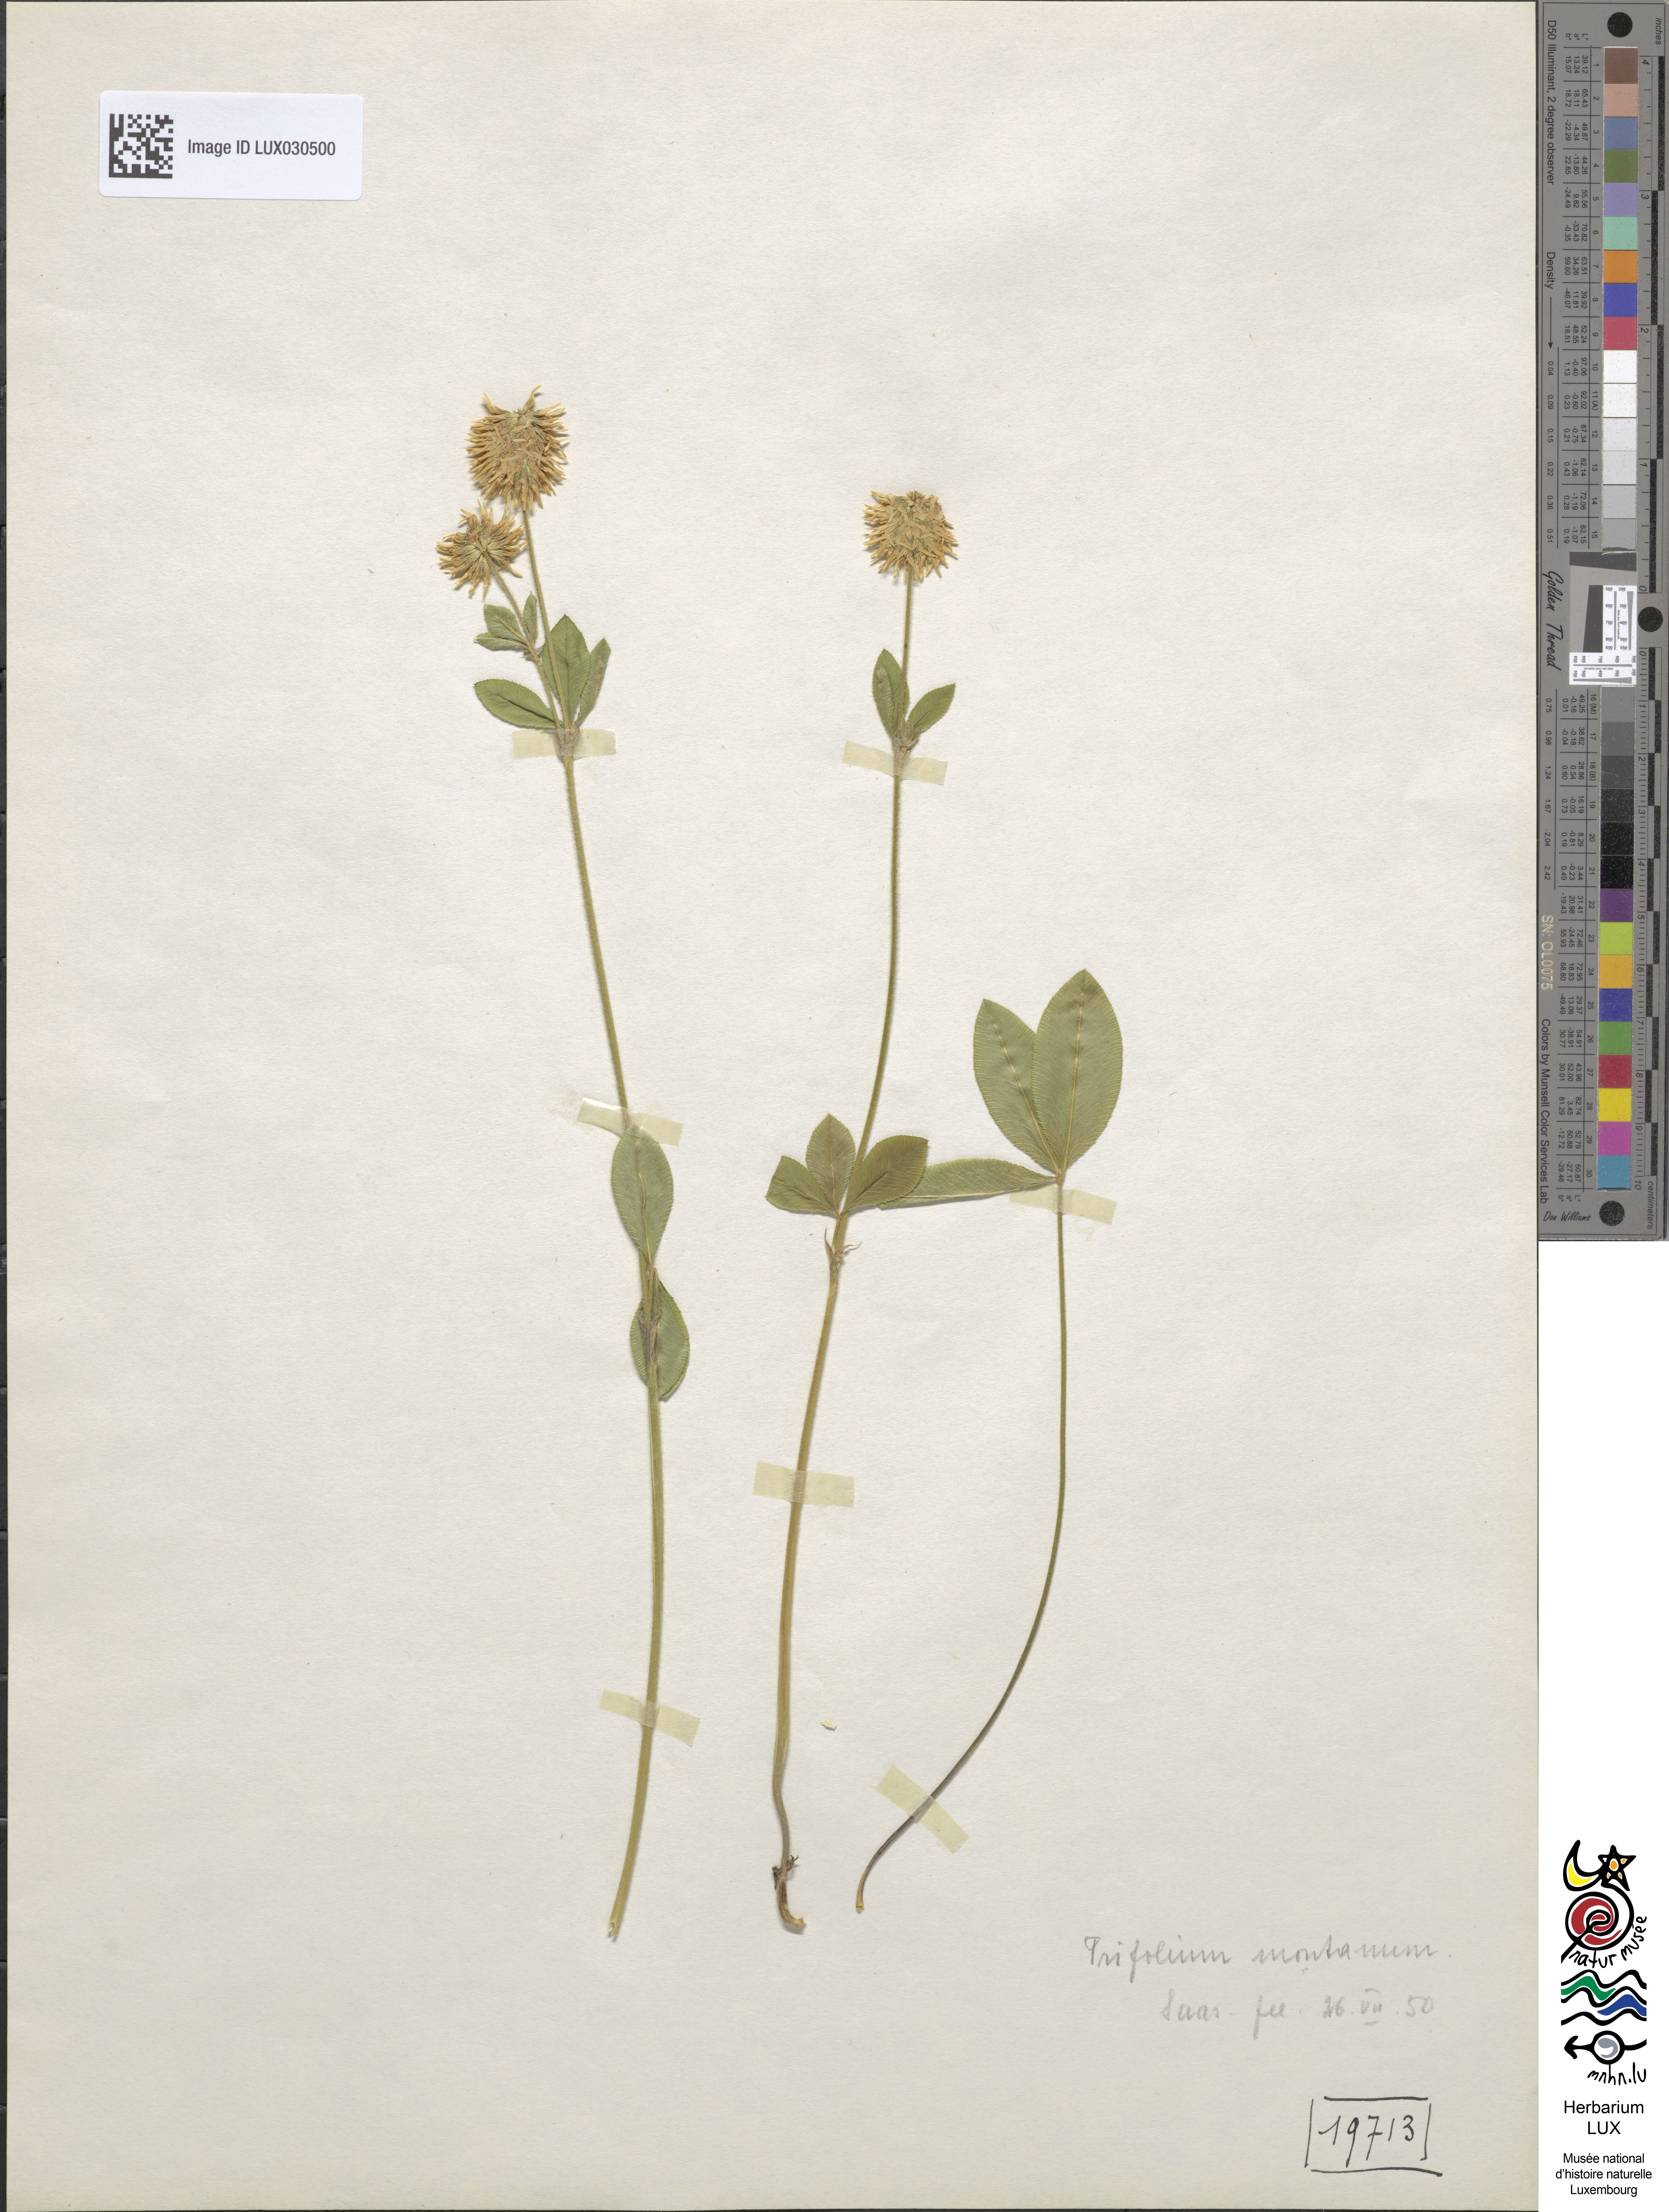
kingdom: Plantae
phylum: Tracheophyta
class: Magnoliopsida
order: Fabales
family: Fabaceae
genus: Trifolium
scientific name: Trifolium montanum
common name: Mountain clover
